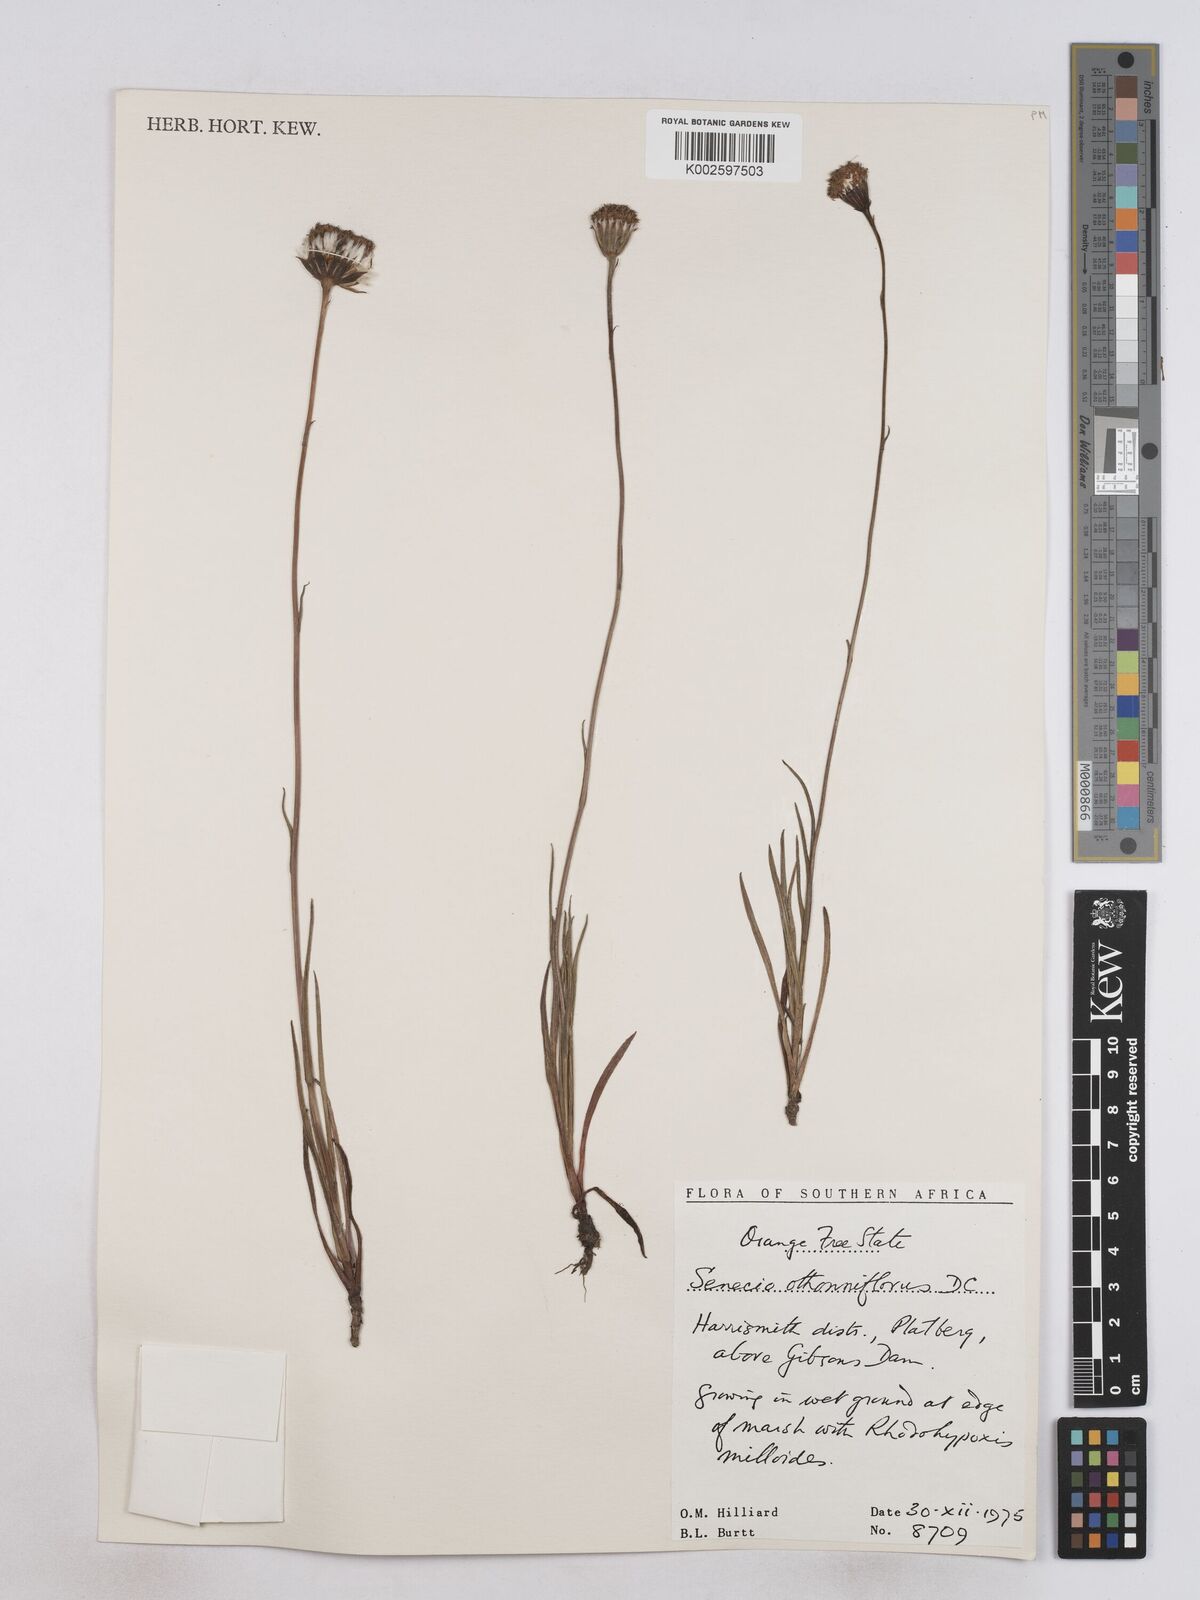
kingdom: Plantae
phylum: Tracheophyta
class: Magnoliopsida
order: Asterales
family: Asteraceae
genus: Senecio
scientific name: Senecio othonniflorus
